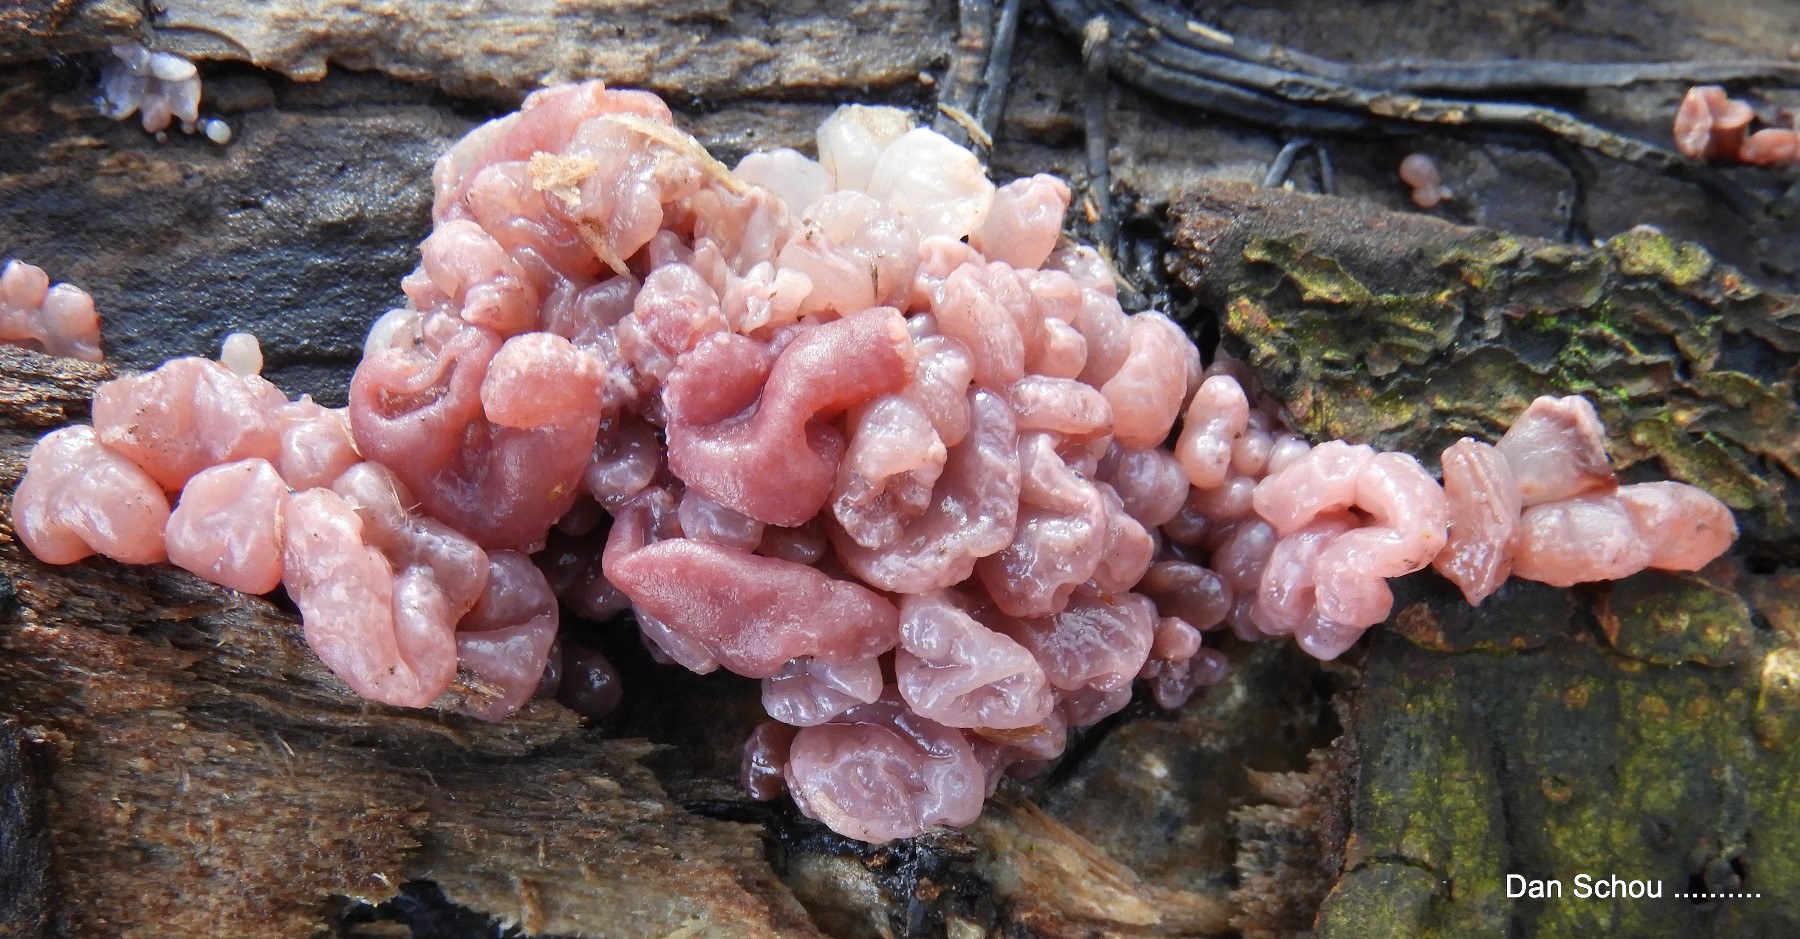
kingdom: Fungi
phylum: Ascomycota
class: Leotiomycetes
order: Helotiales
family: Gelatinodiscaceae
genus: Ascocoryne
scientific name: Ascocoryne sarcoides
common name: rødlilla sejskive
